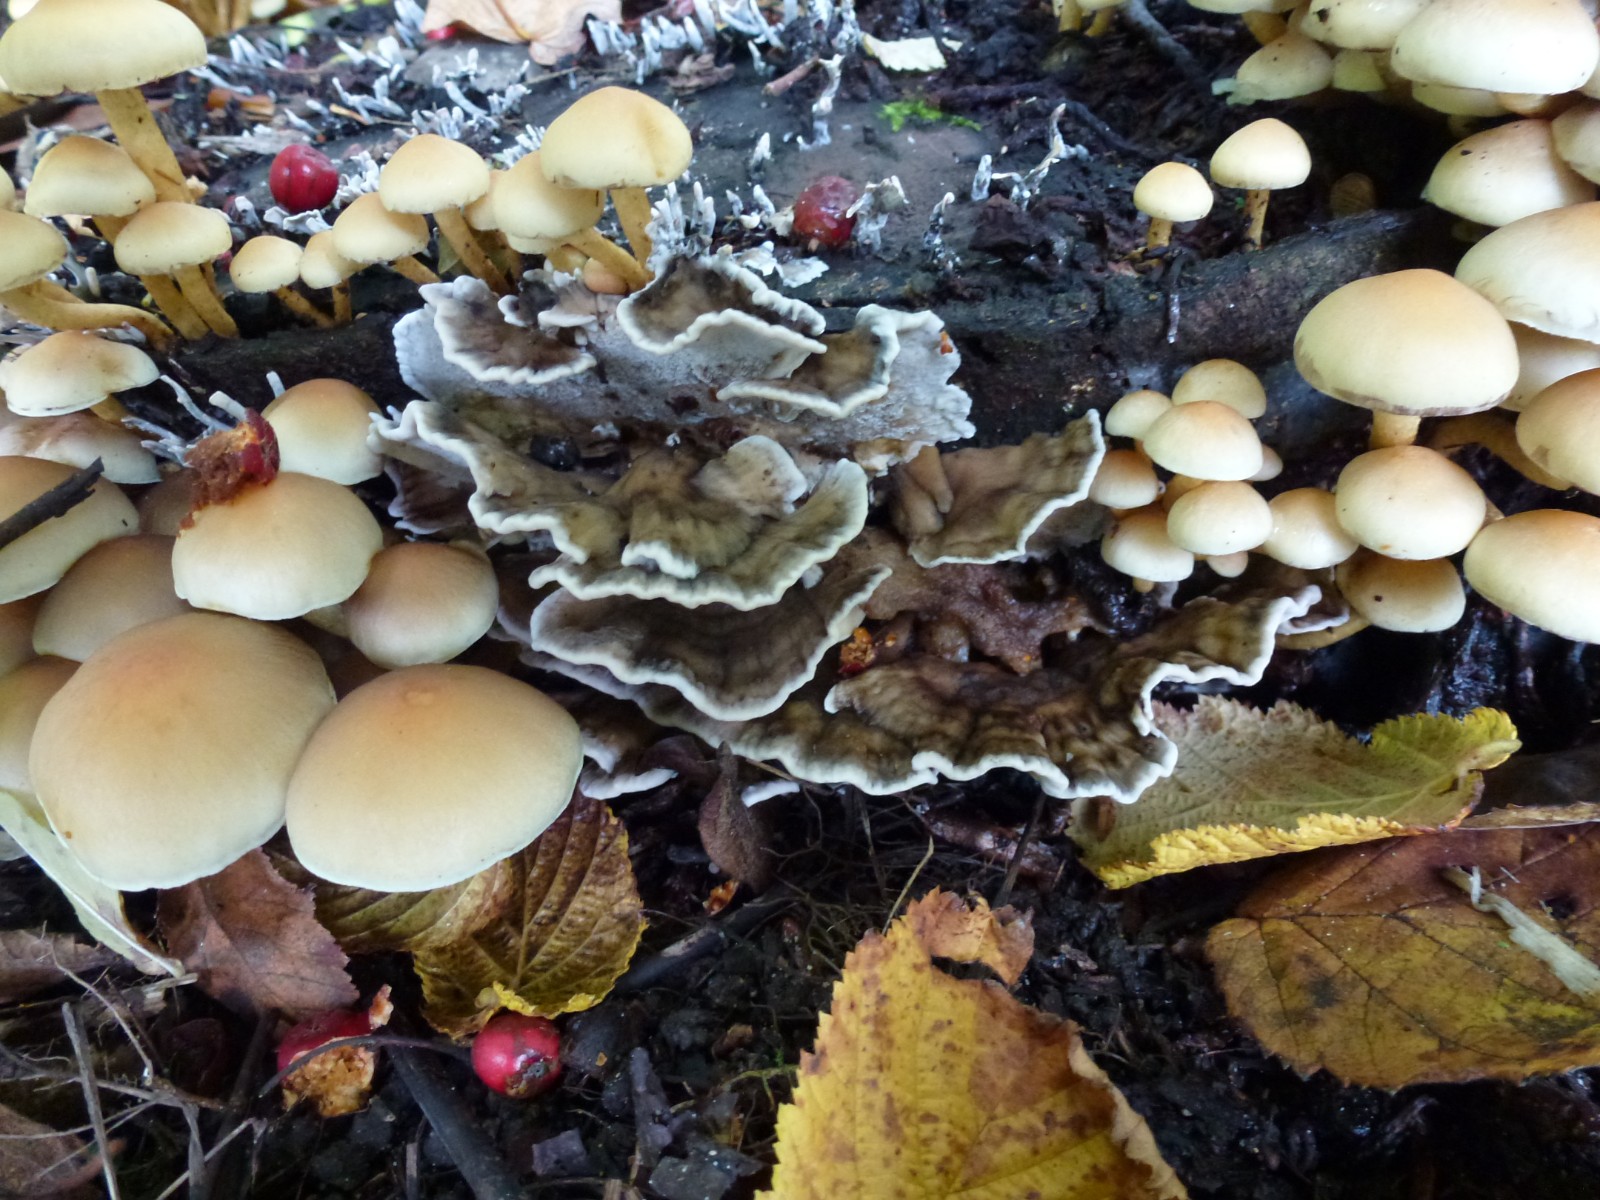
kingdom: Fungi
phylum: Basidiomycota
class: Agaricomycetes
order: Polyporales
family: Polyporaceae
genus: Trametes
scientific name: Trametes versicolor
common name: broget læderporesvamp
